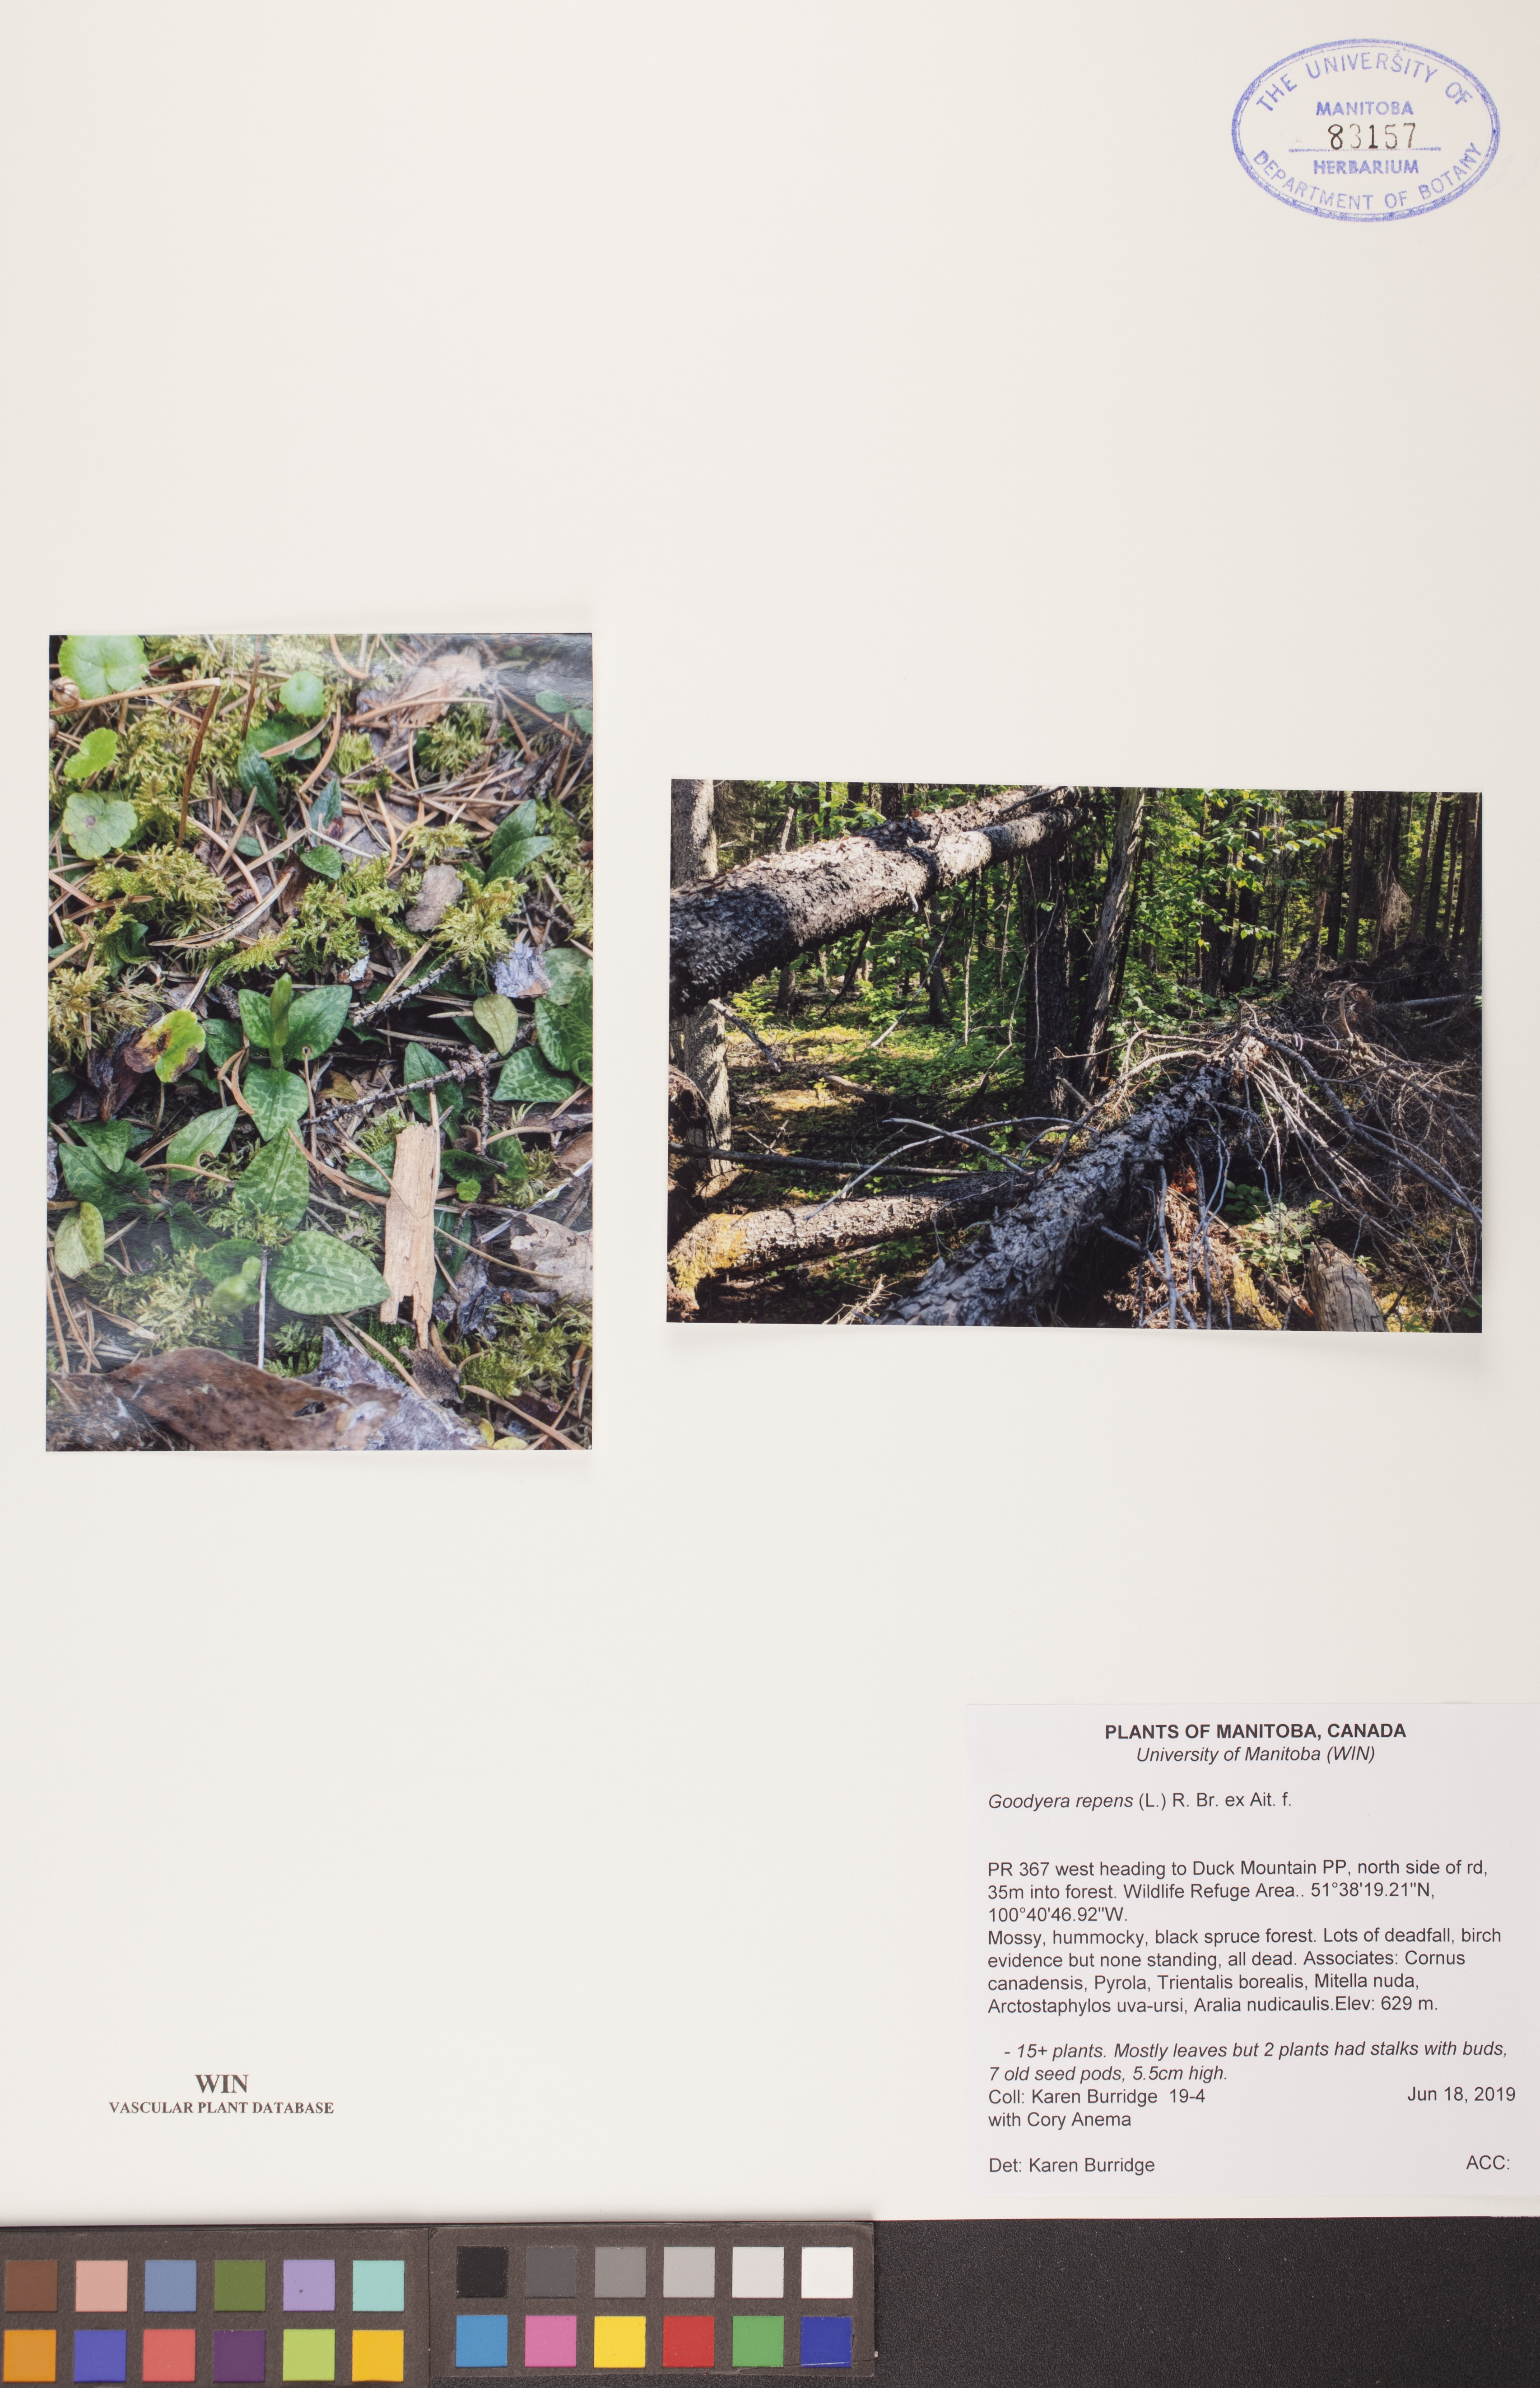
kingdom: Plantae
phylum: Tracheophyta
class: Liliopsida
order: Asparagales
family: Orchidaceae
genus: Goodyera
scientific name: Goodyera repens
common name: Creeping lady's-tresses
